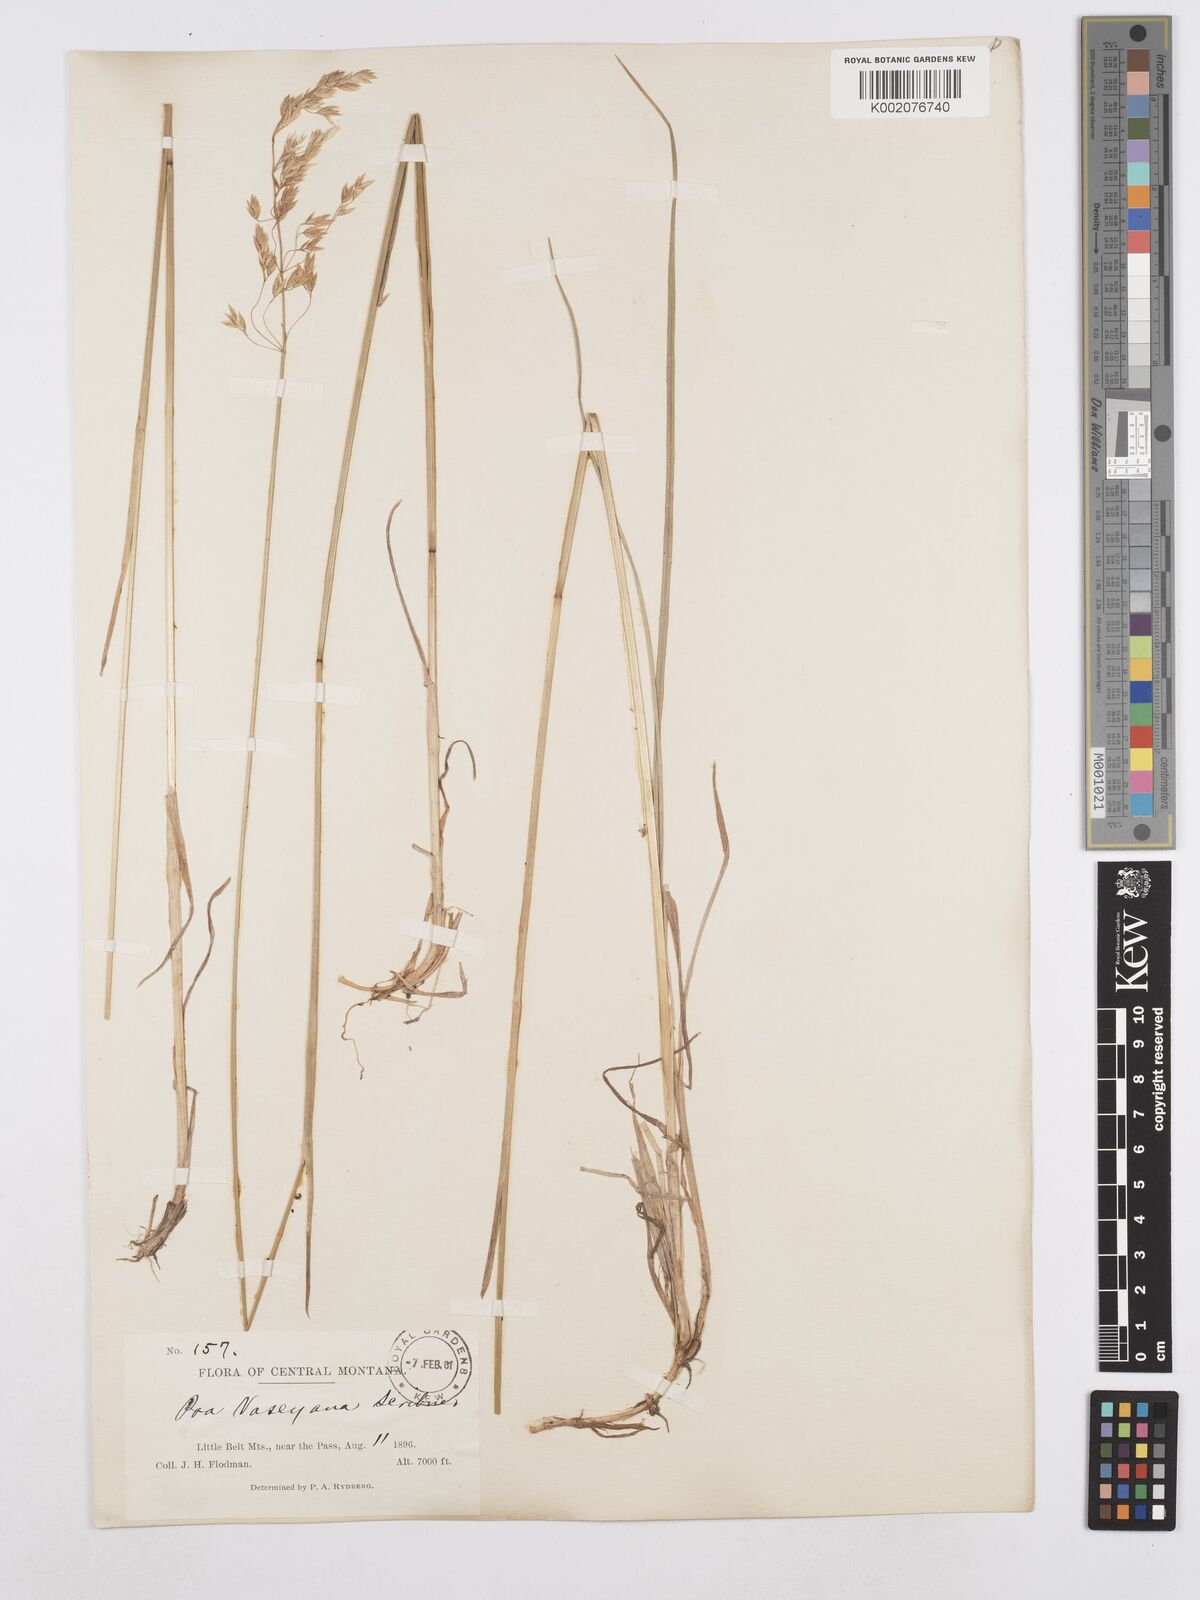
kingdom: Plantae
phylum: Tracheophyta
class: Liliopsida
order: Poales
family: Poaceae
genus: Poa
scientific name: Poa wheeleri
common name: Wheeler's bluegrass
